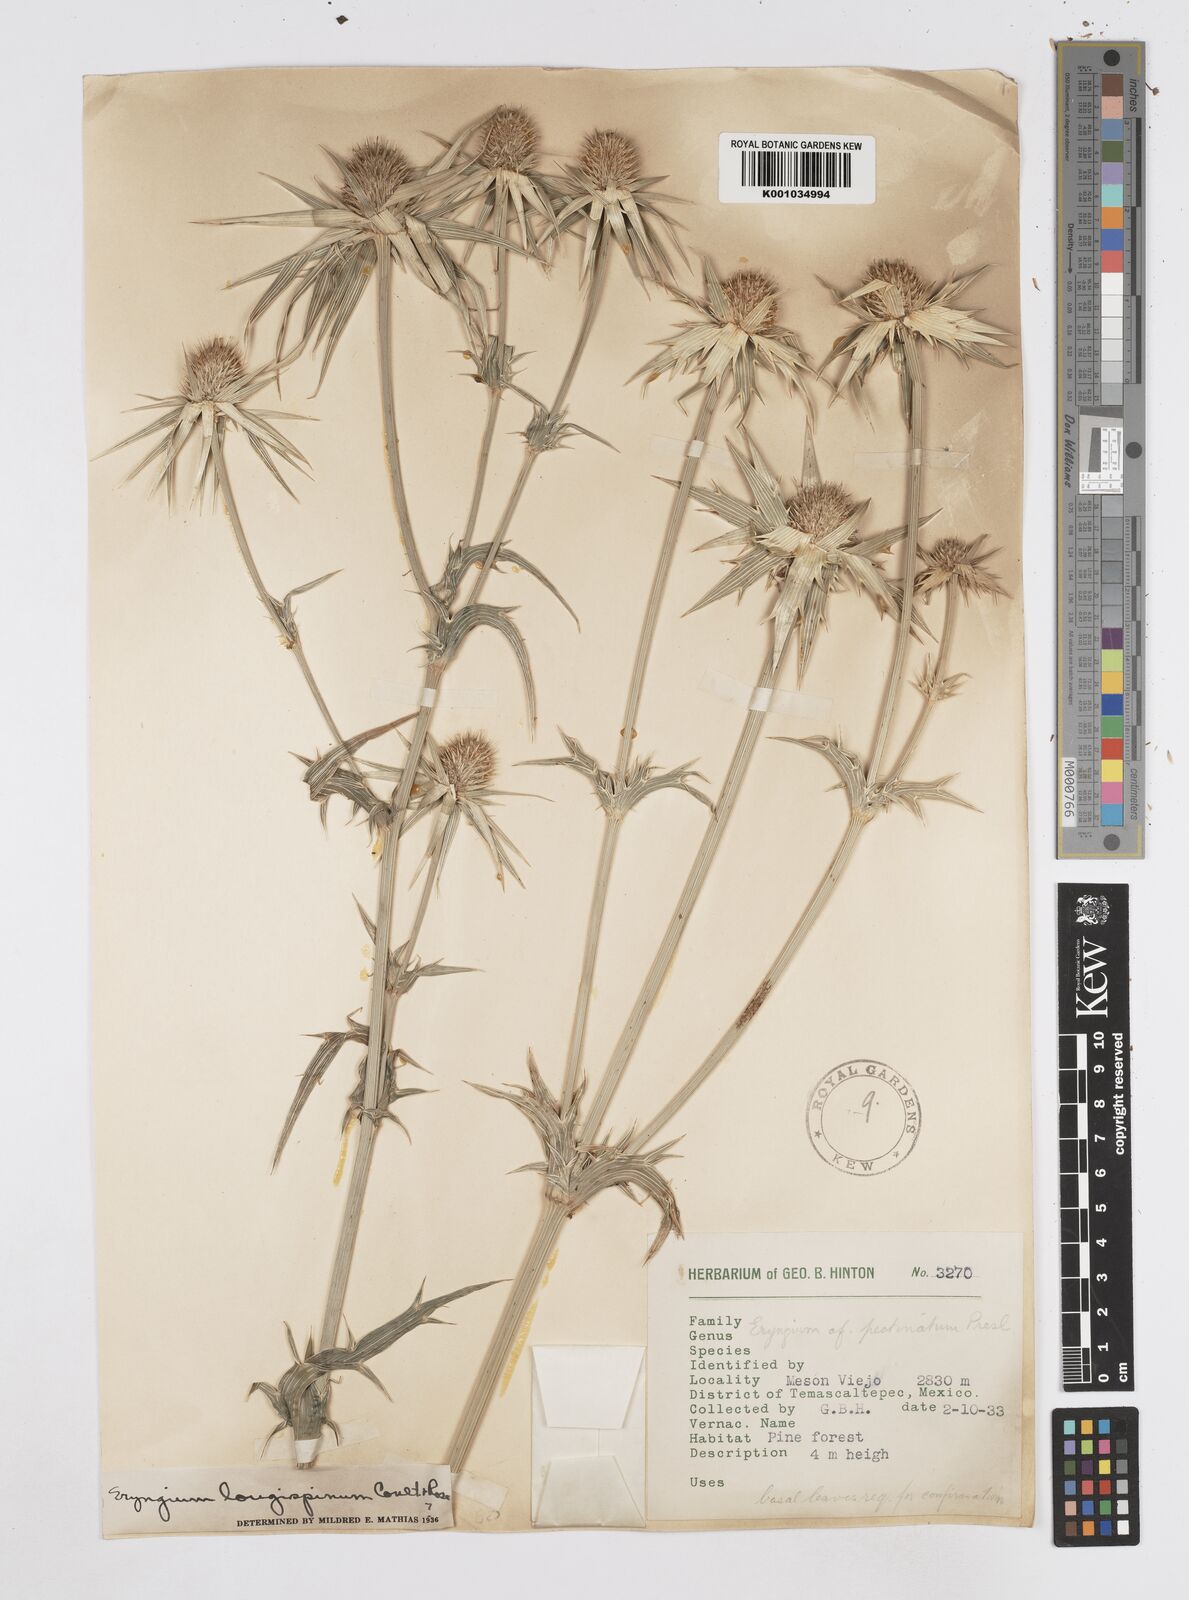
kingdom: Plantae
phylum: Tracheophyta
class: Magnoliopsida
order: Apiales
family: Apiaceae
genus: Eryngium
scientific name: Eryngium pectinatum
